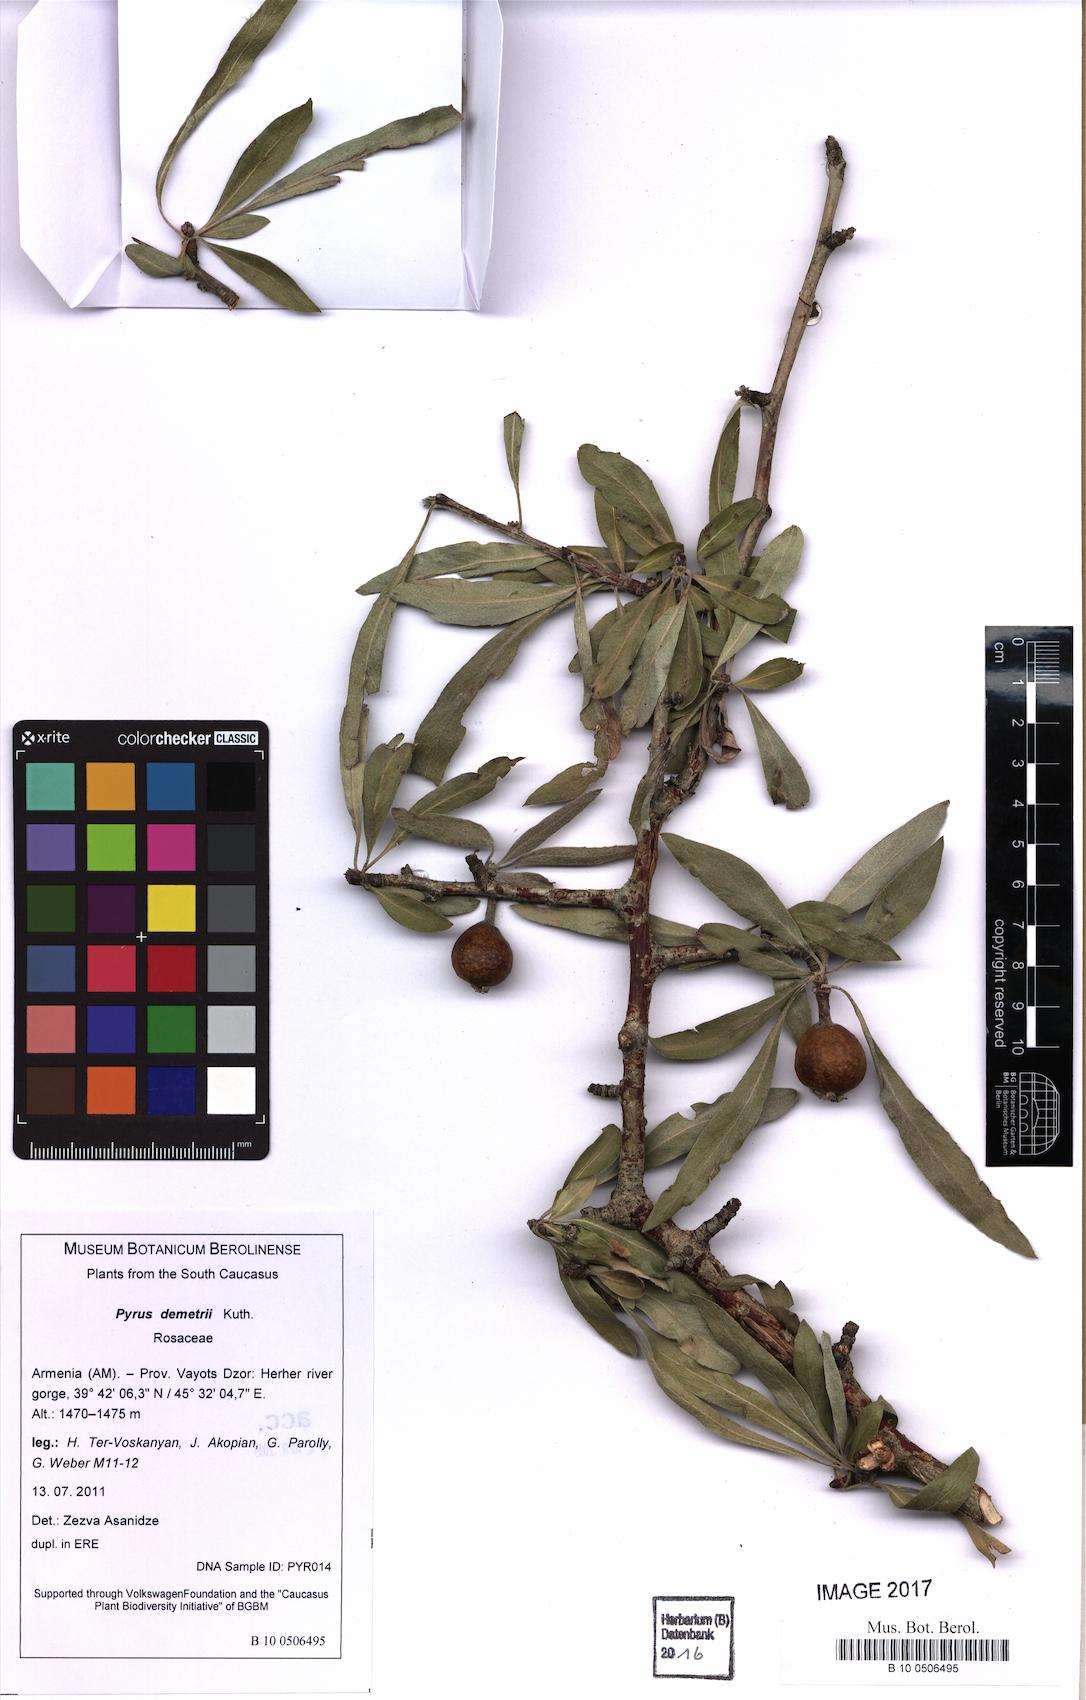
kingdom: Plantae
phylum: Tracheophyta
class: Magnoliopsida
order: Rosales
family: Rosaceae
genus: Pyrus
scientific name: Pyrus demetrii
